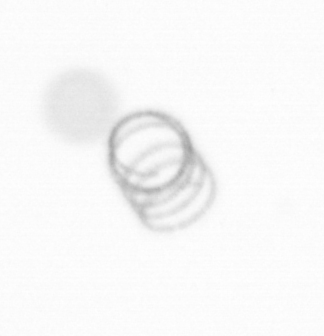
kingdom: Chromista
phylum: Ochrophyta
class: Bacillariophyceae
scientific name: Bacillariophyceae
